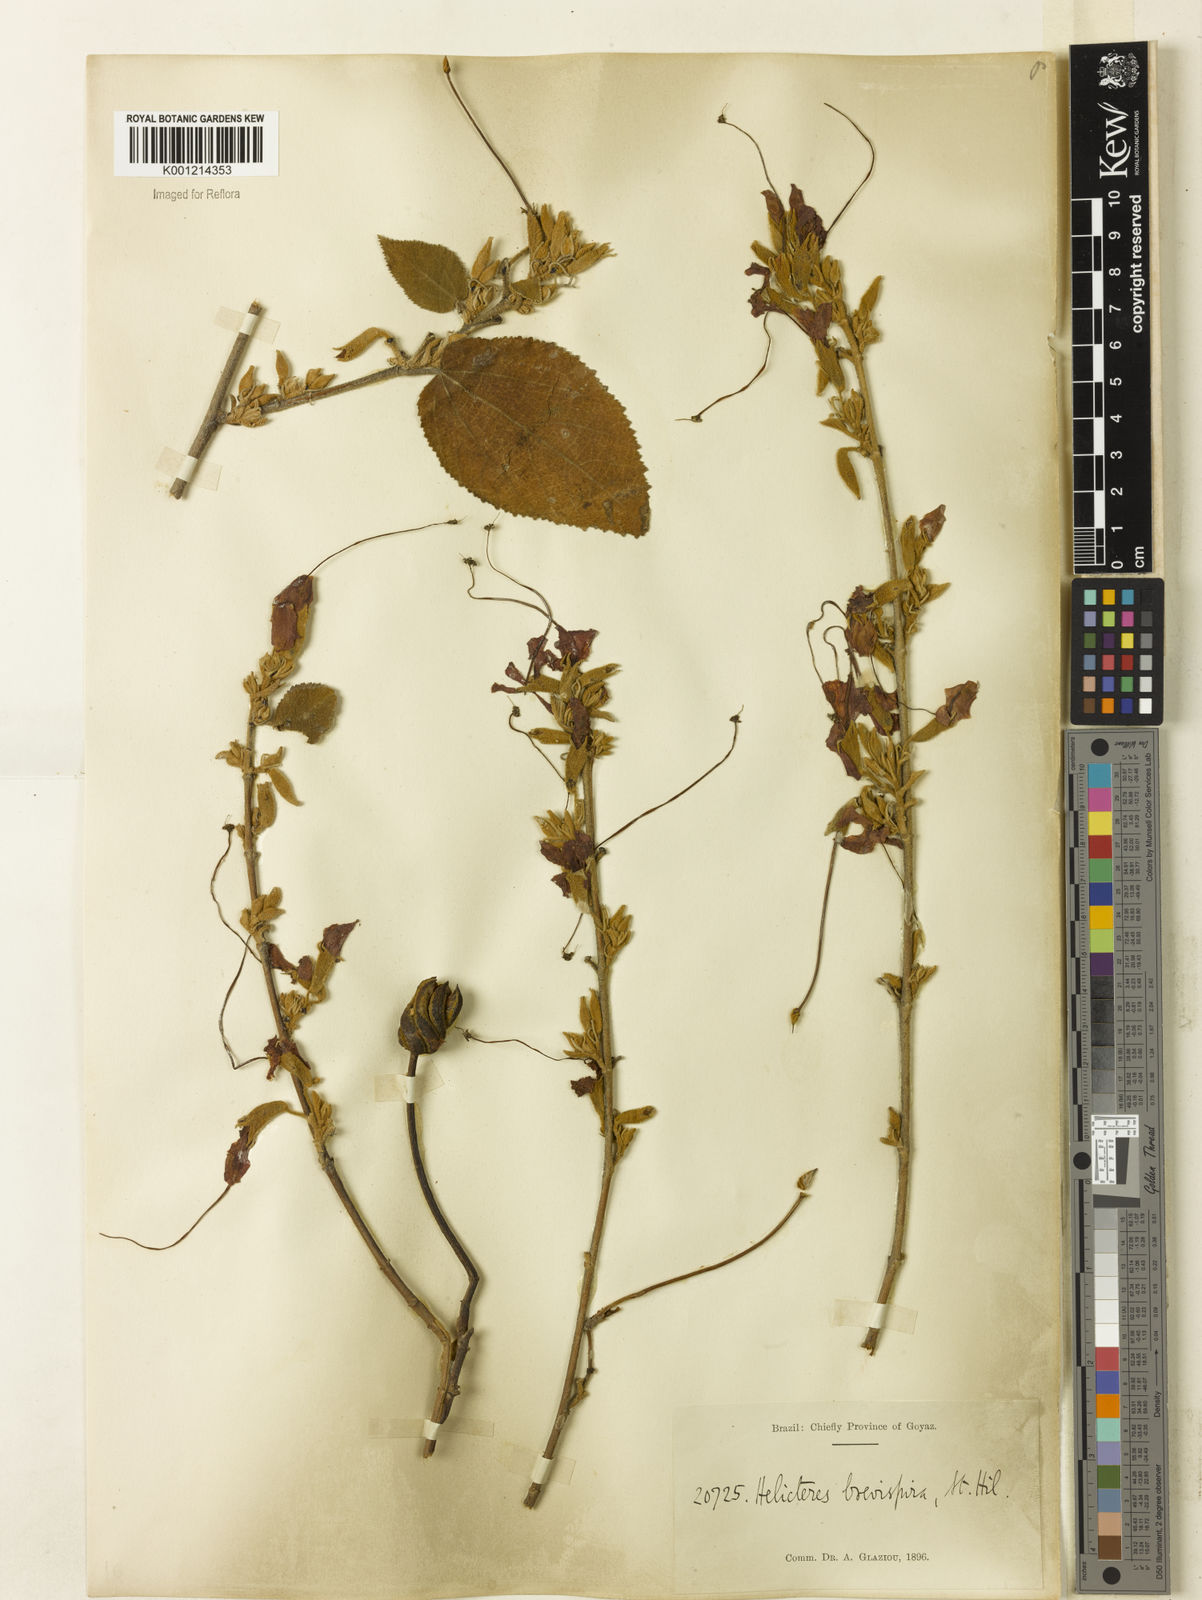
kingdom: Plantae
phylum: Tracheophyta
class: Magnoliopsida
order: Malvales
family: Malvaceae
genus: Helicteres
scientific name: Helicteres
